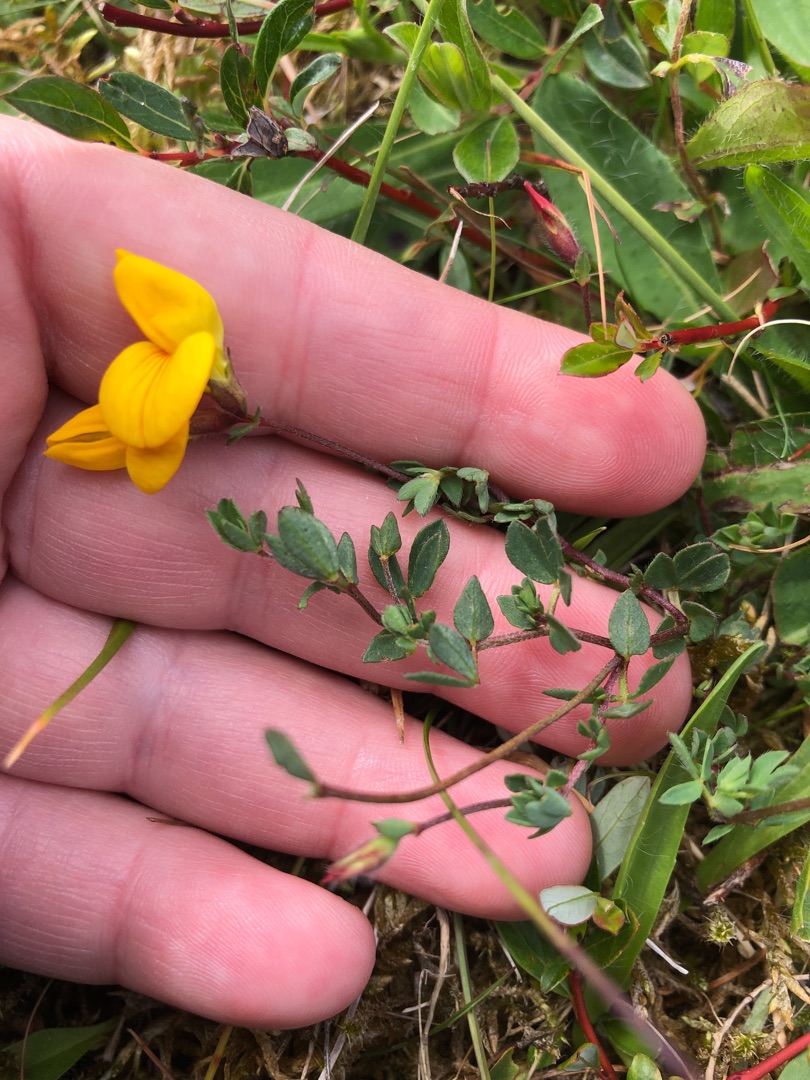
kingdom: Plantae
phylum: Tracheophyta
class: Magnoliopsida
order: Fabales
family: Fabaceae
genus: Lotus
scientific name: Lotus corniculatus
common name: Almindelig kællingetand
